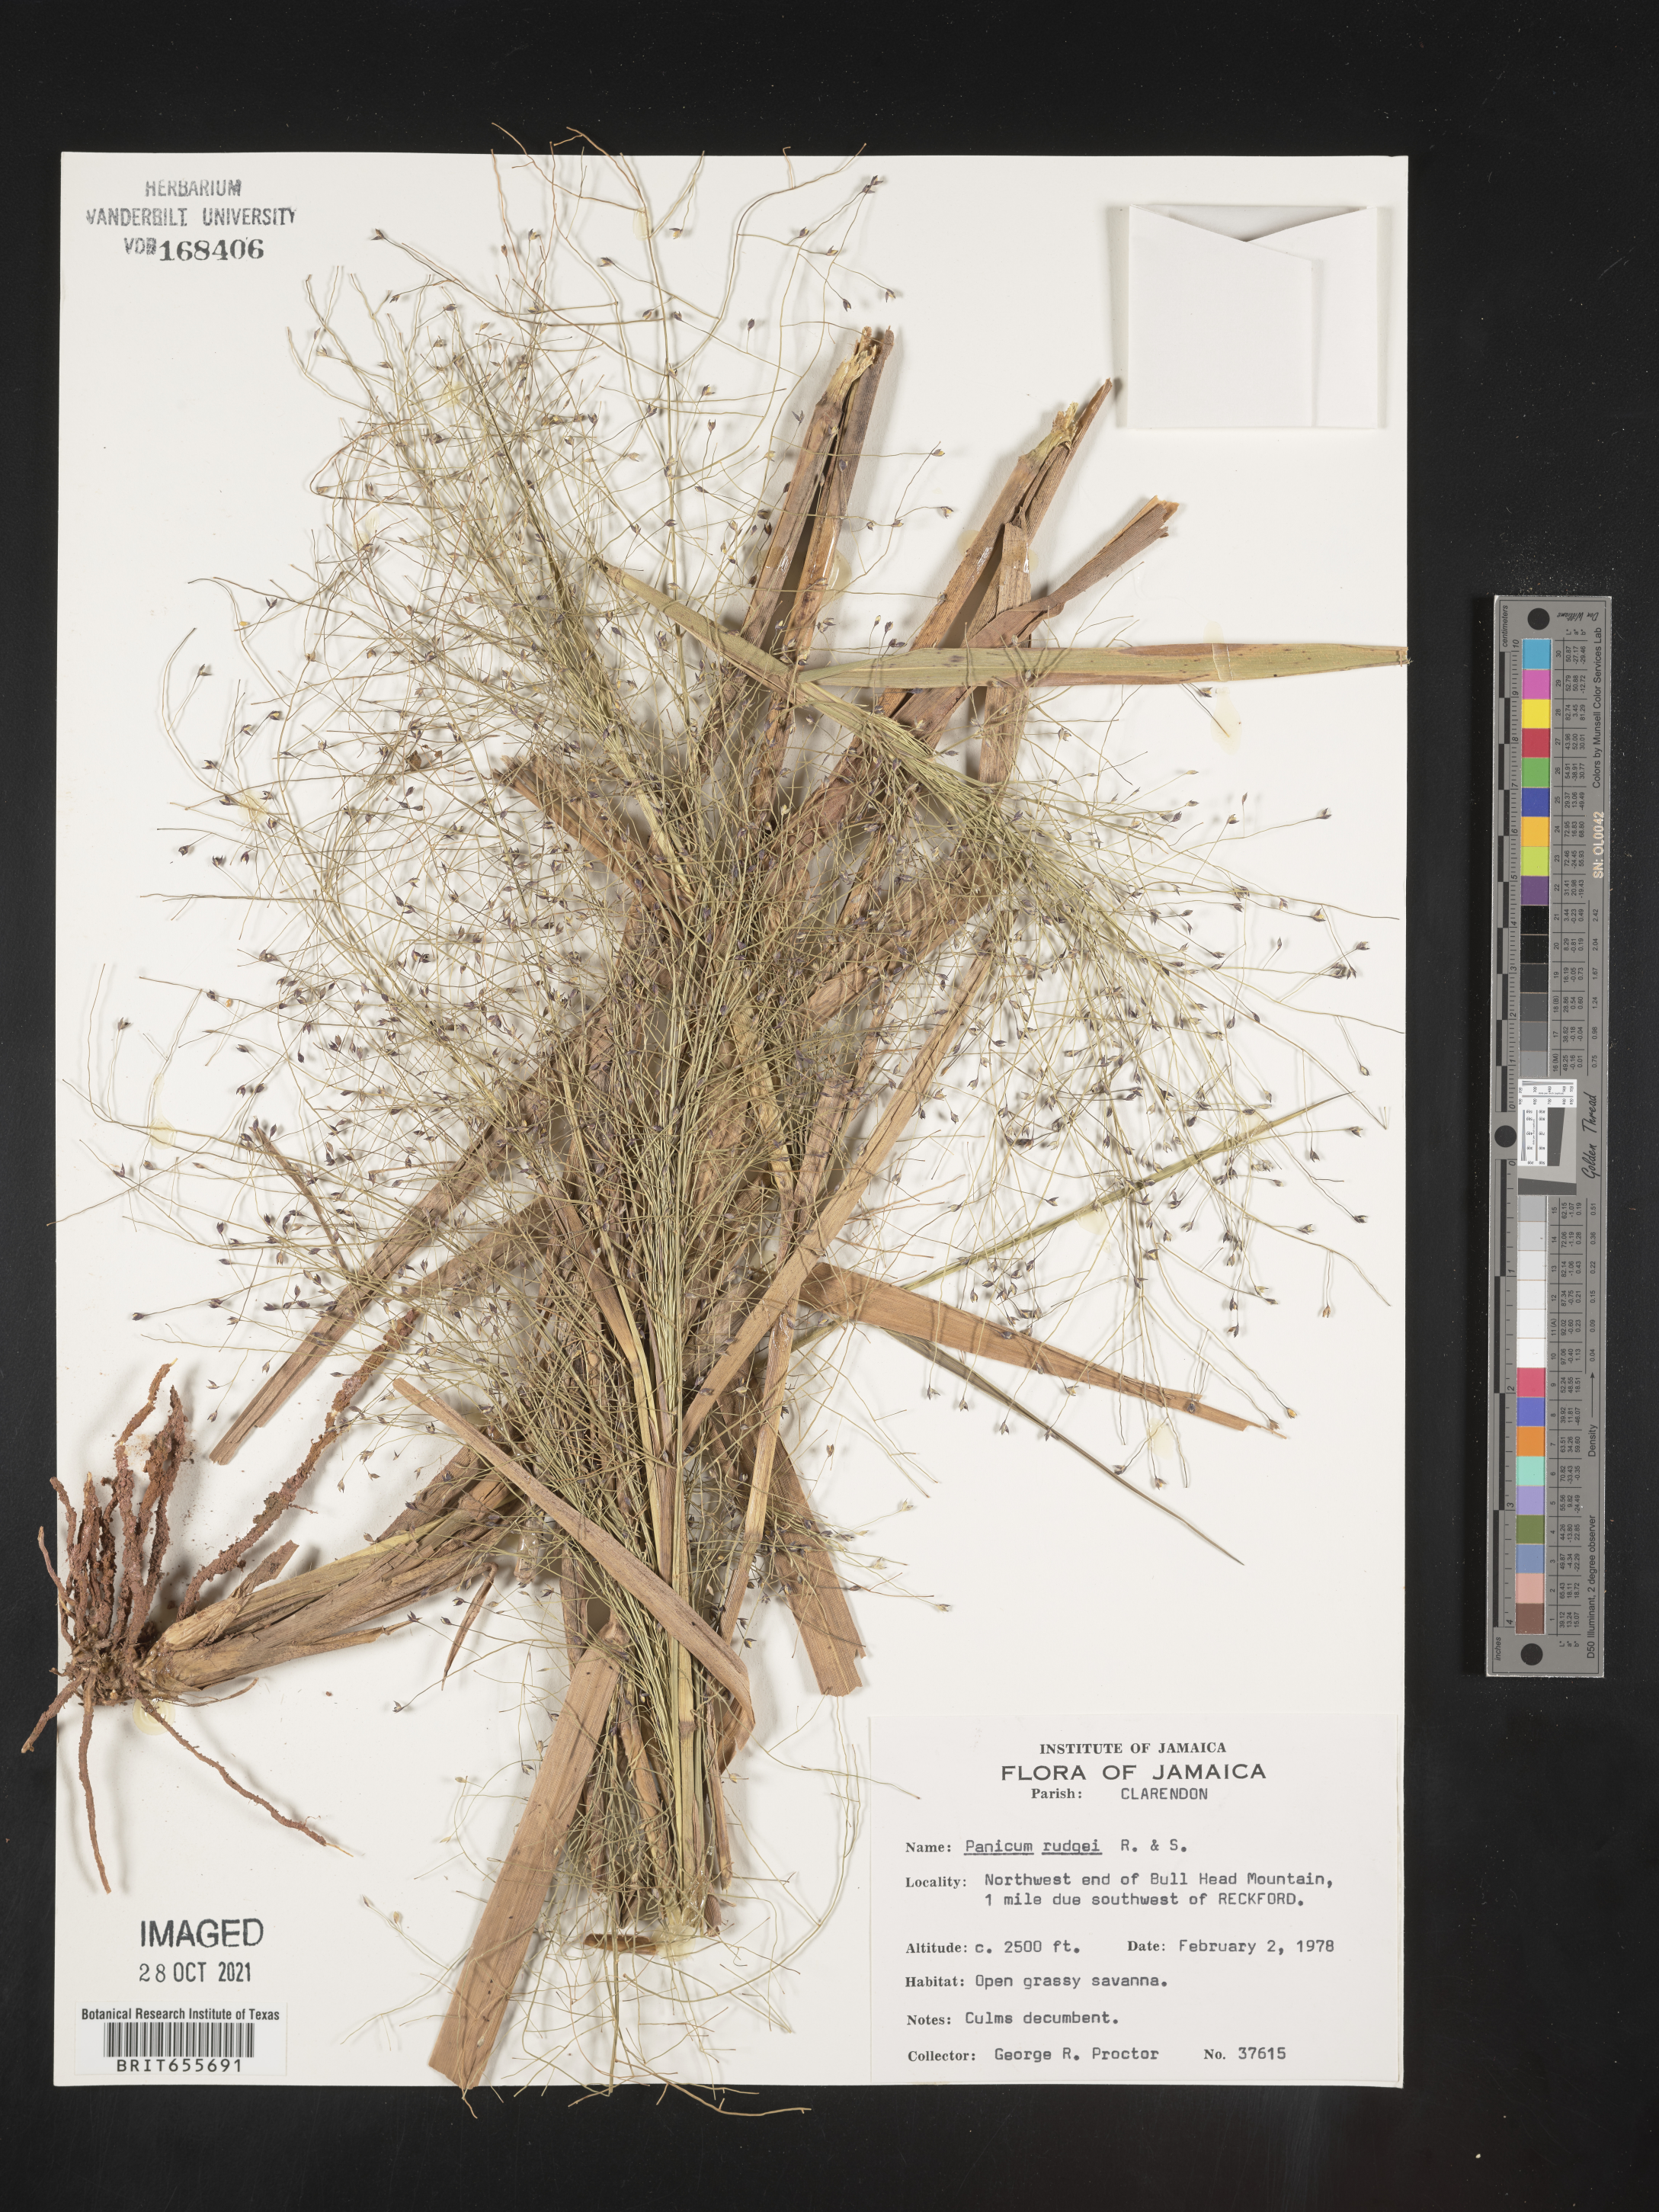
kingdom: Plantae
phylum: Tracheophyta
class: Liliopsida
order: Poales
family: Poaceae
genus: Panicum
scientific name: Panicum
